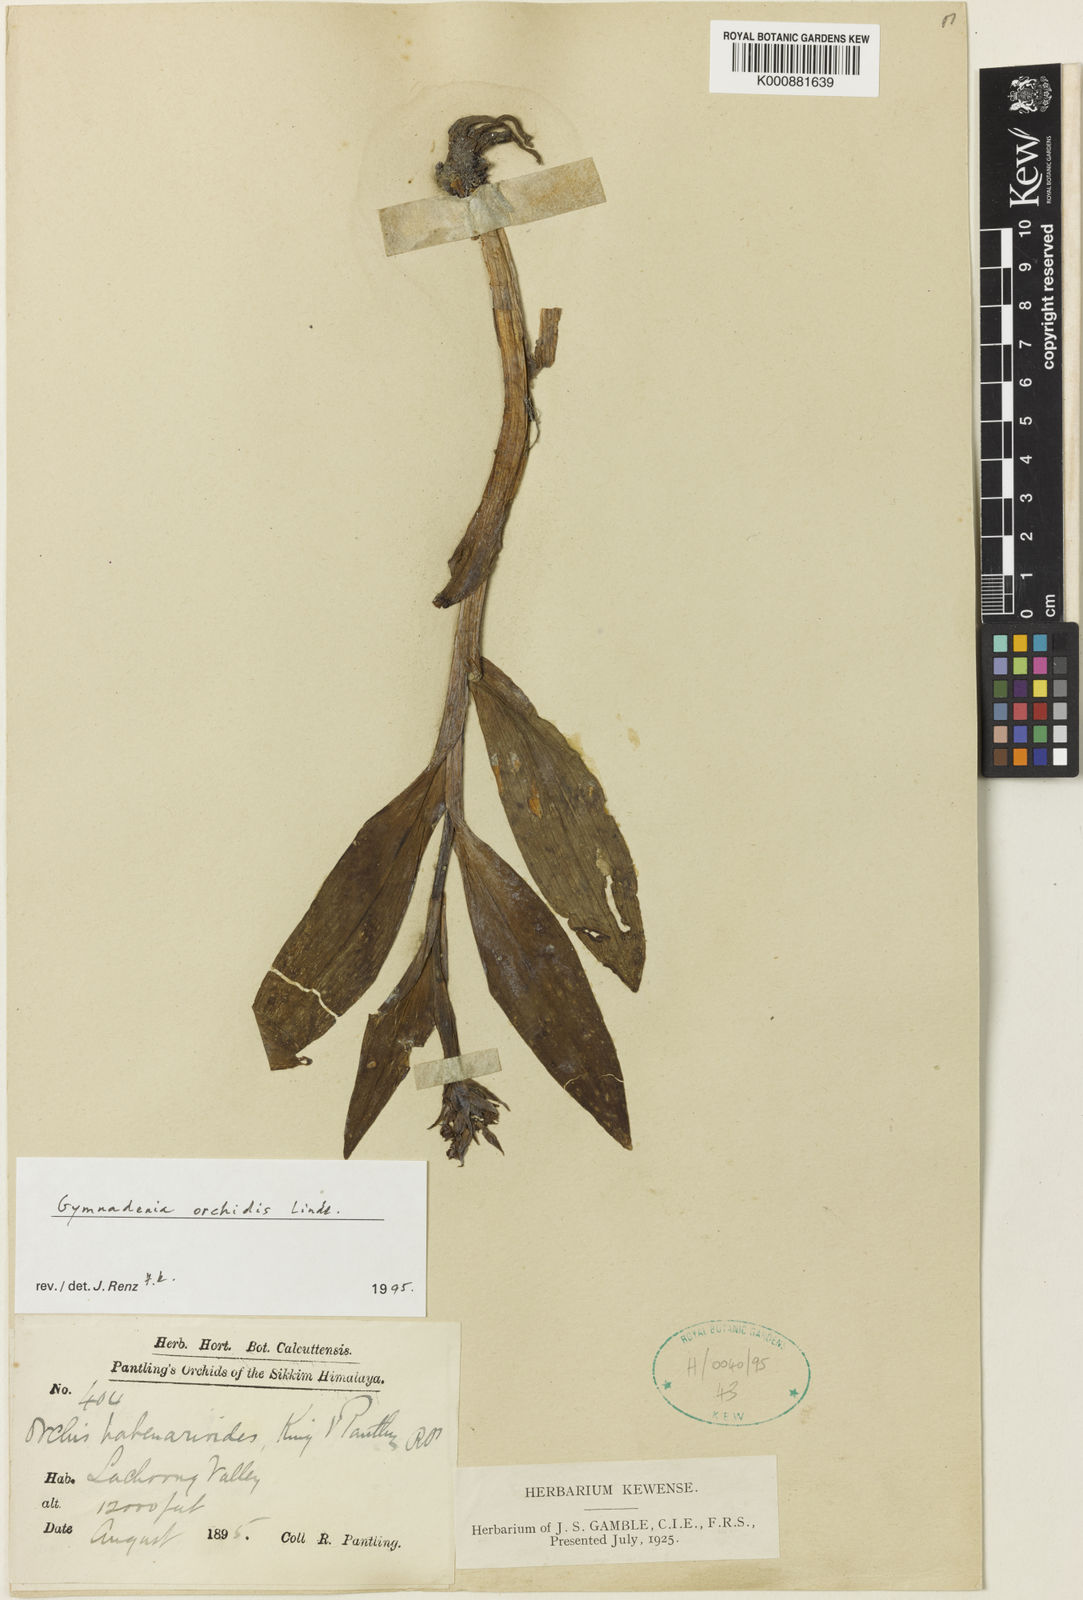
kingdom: Plantae
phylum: Tracheophyta
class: Liliopsida
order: Asparagales
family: Orchidaceae
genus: Gymnadenia
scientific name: Gymnadenia orchidis
